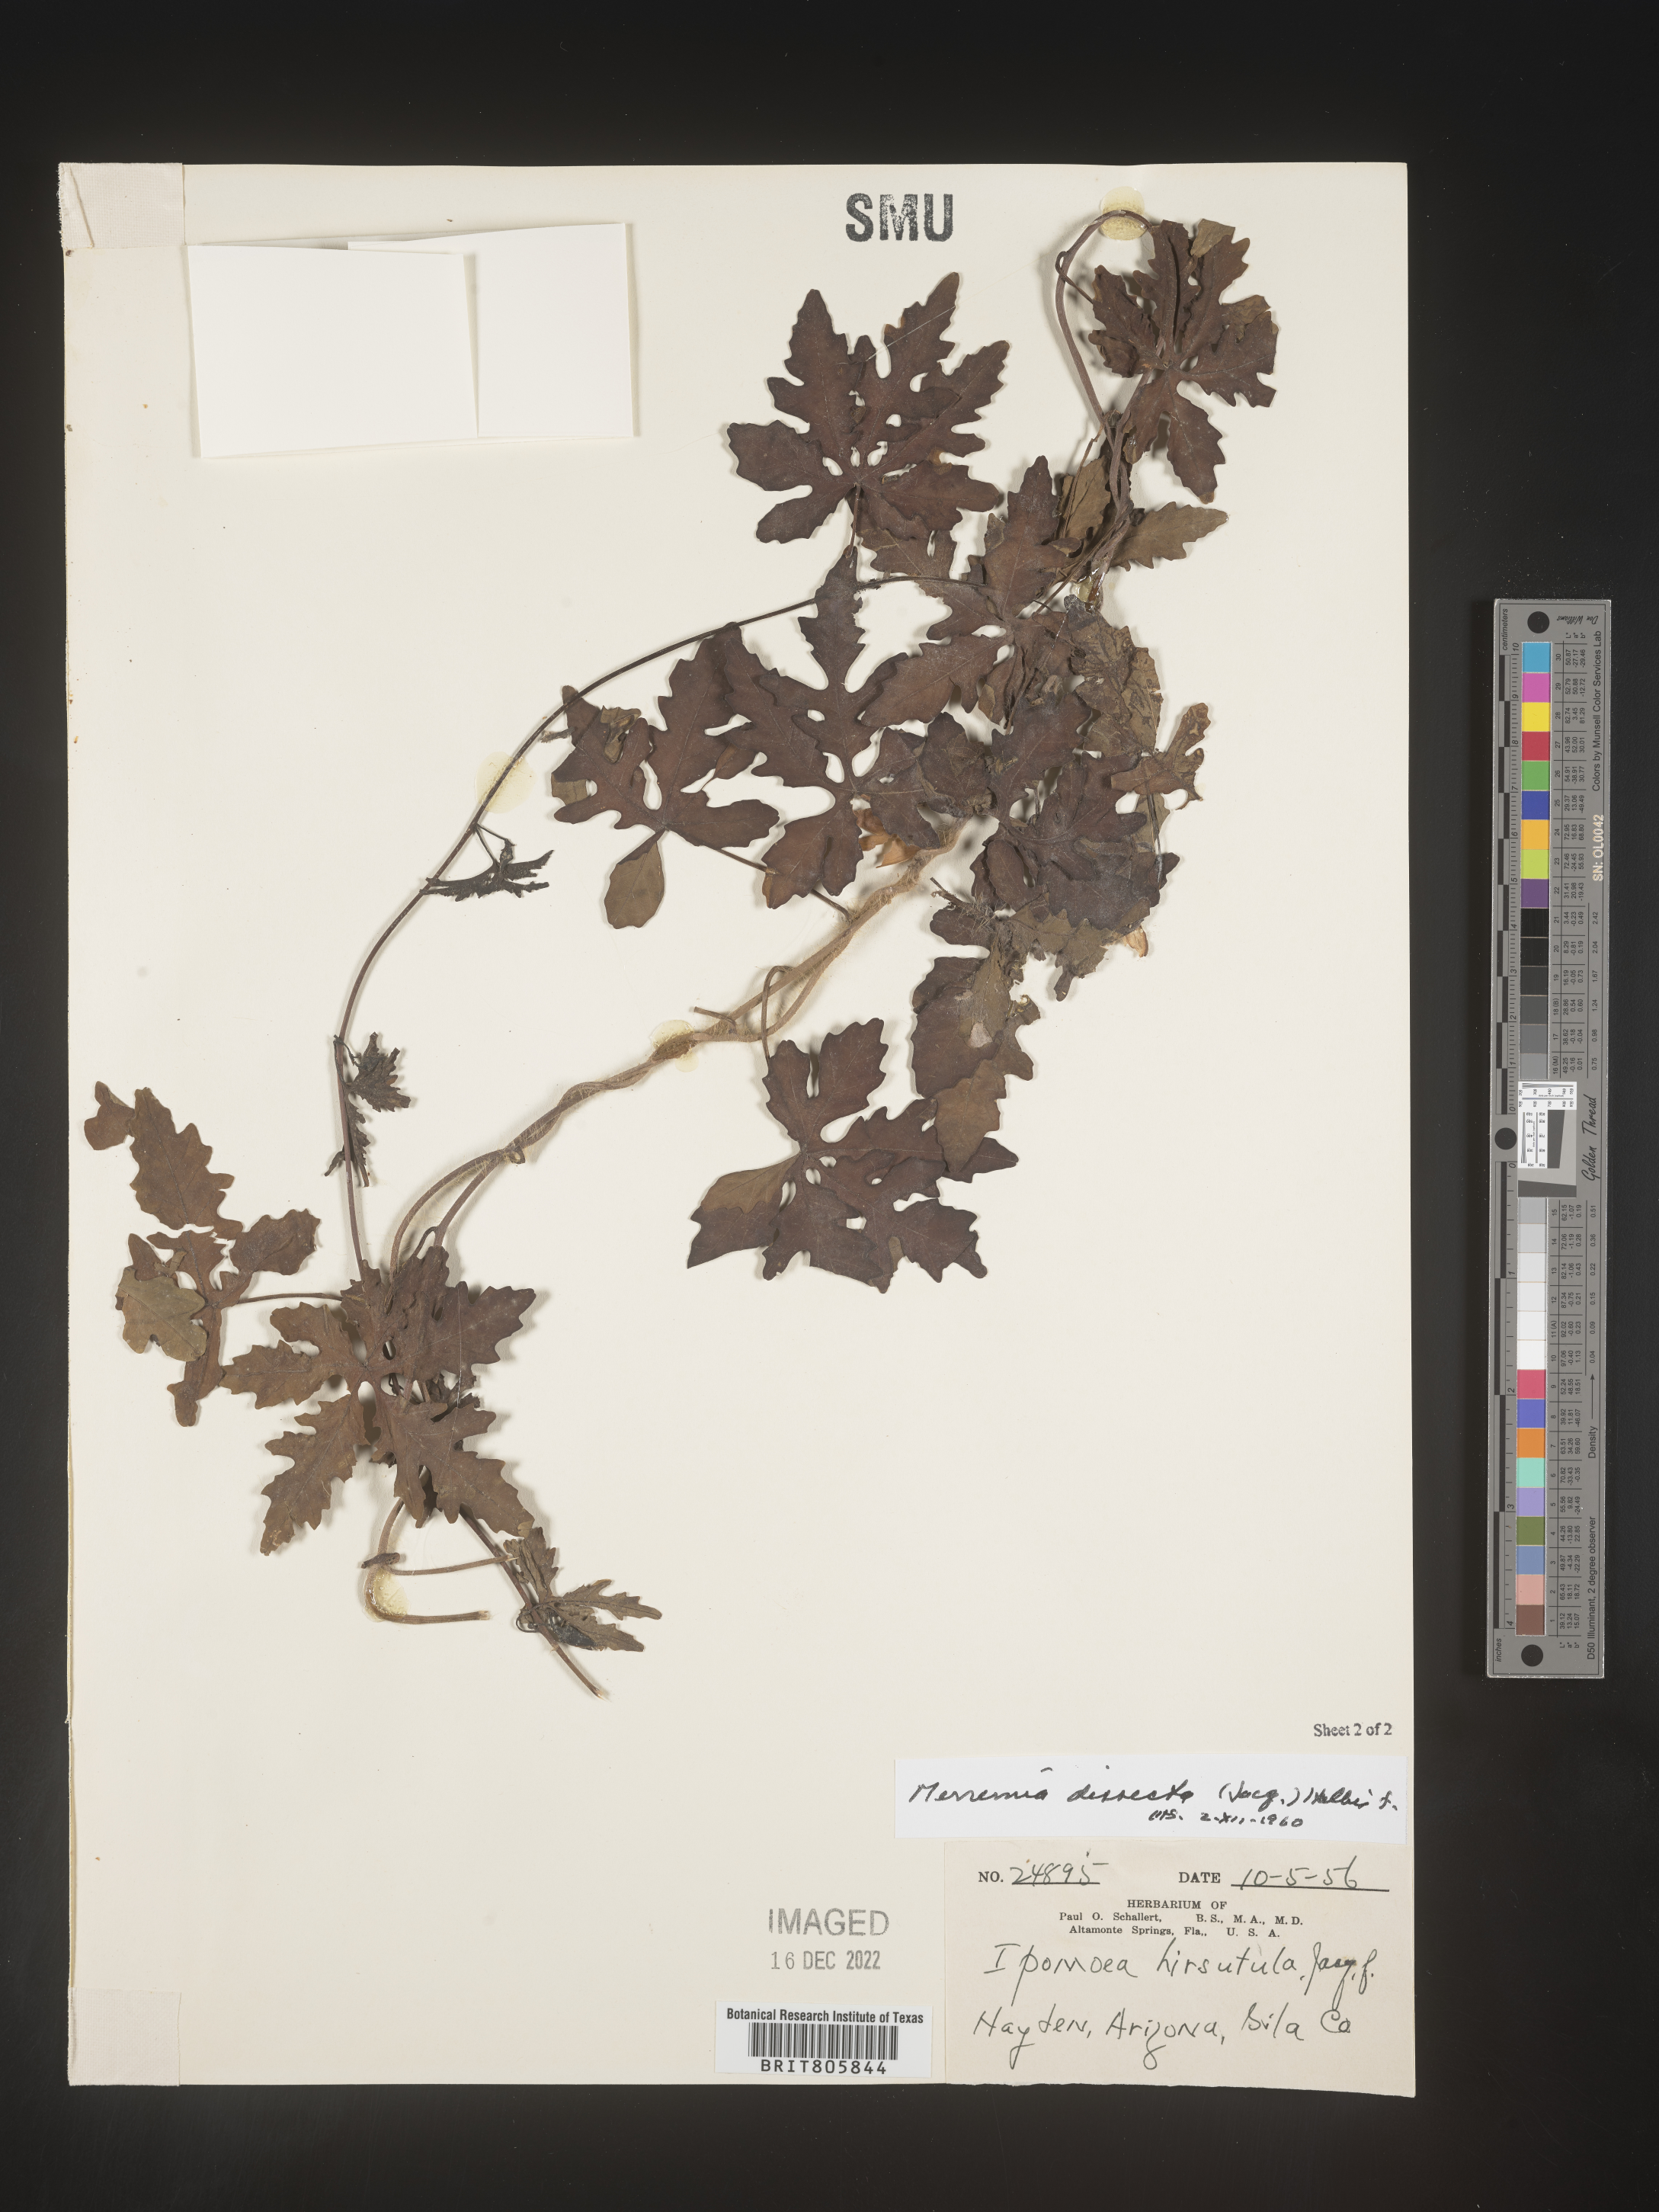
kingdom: Plantae
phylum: Tracheophyta
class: Magnoliopsida
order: Solanales
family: Convolvulaceae
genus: Merremia
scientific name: Merremia
